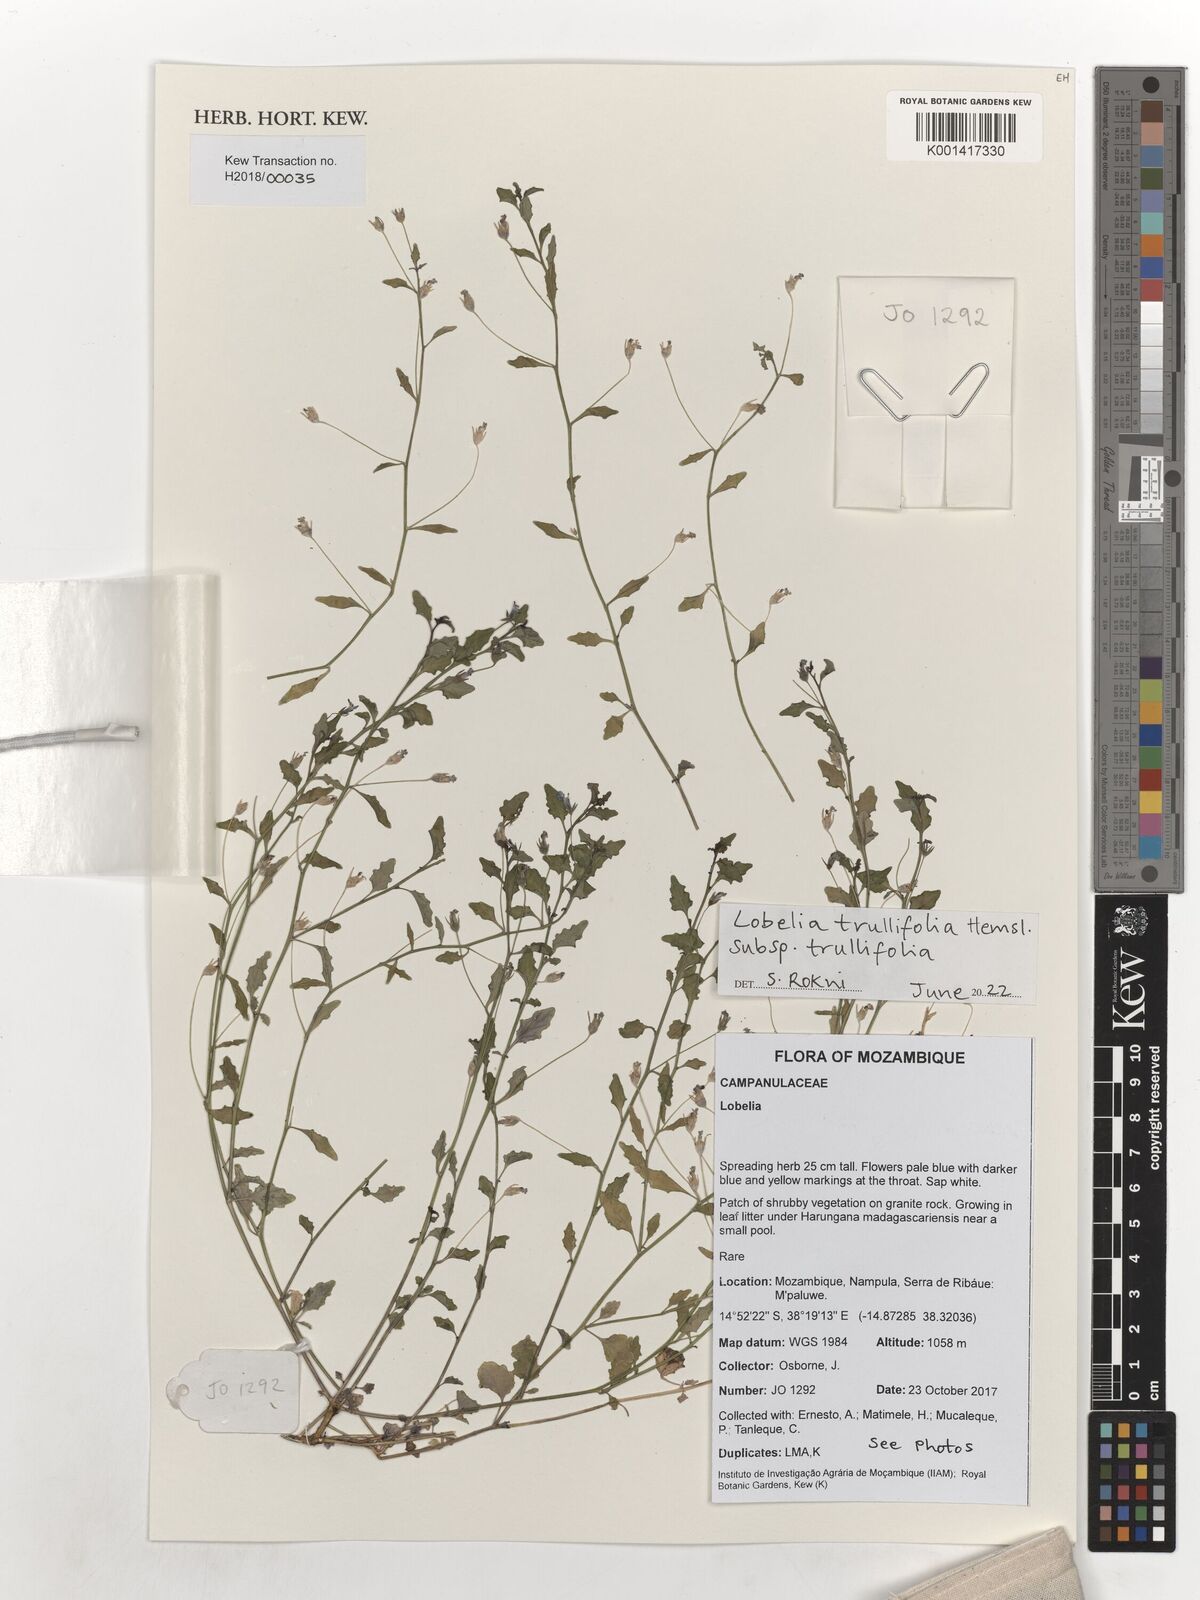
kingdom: Plantae
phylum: Tracheophyta
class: Magnoliopsida
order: Asterales
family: Campanulaceae
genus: Lobelia
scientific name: Lobelia trullifolia
